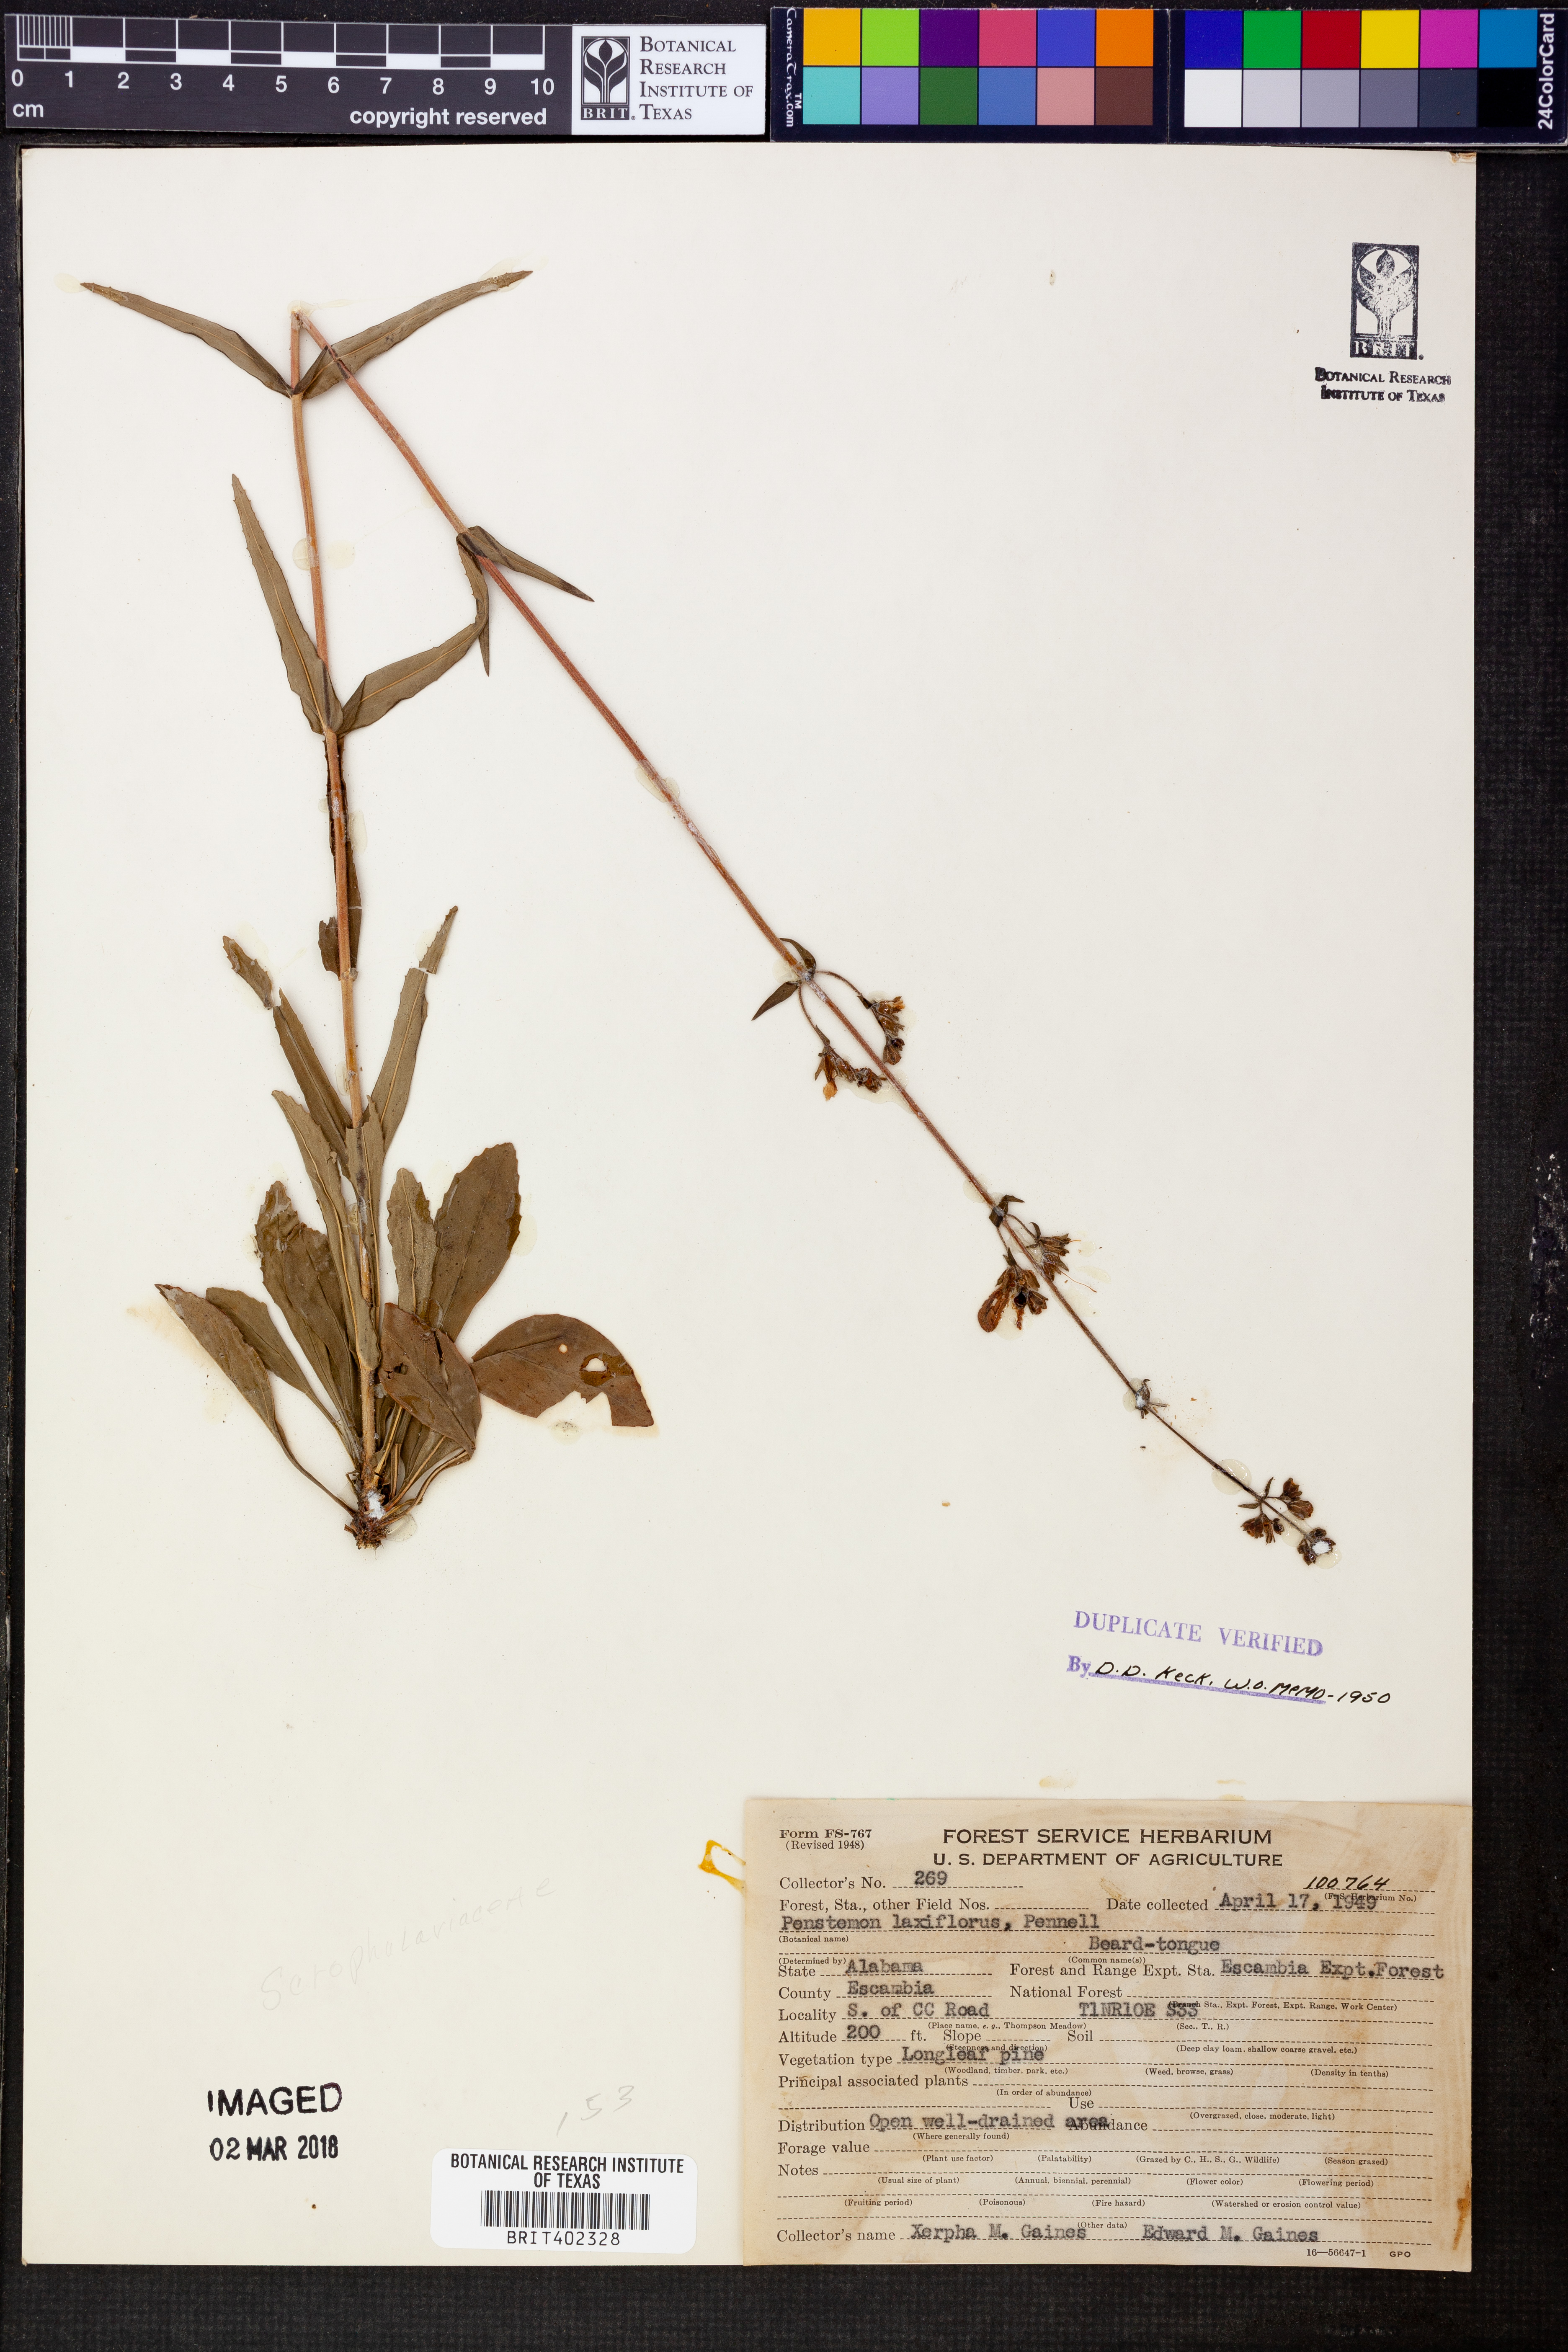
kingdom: Plantae
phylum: Tracheophyta
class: Magnoliopsida
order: Lamiales
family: Plantaginaceae
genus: Penstemon
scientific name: Penstemon laxiflorus
